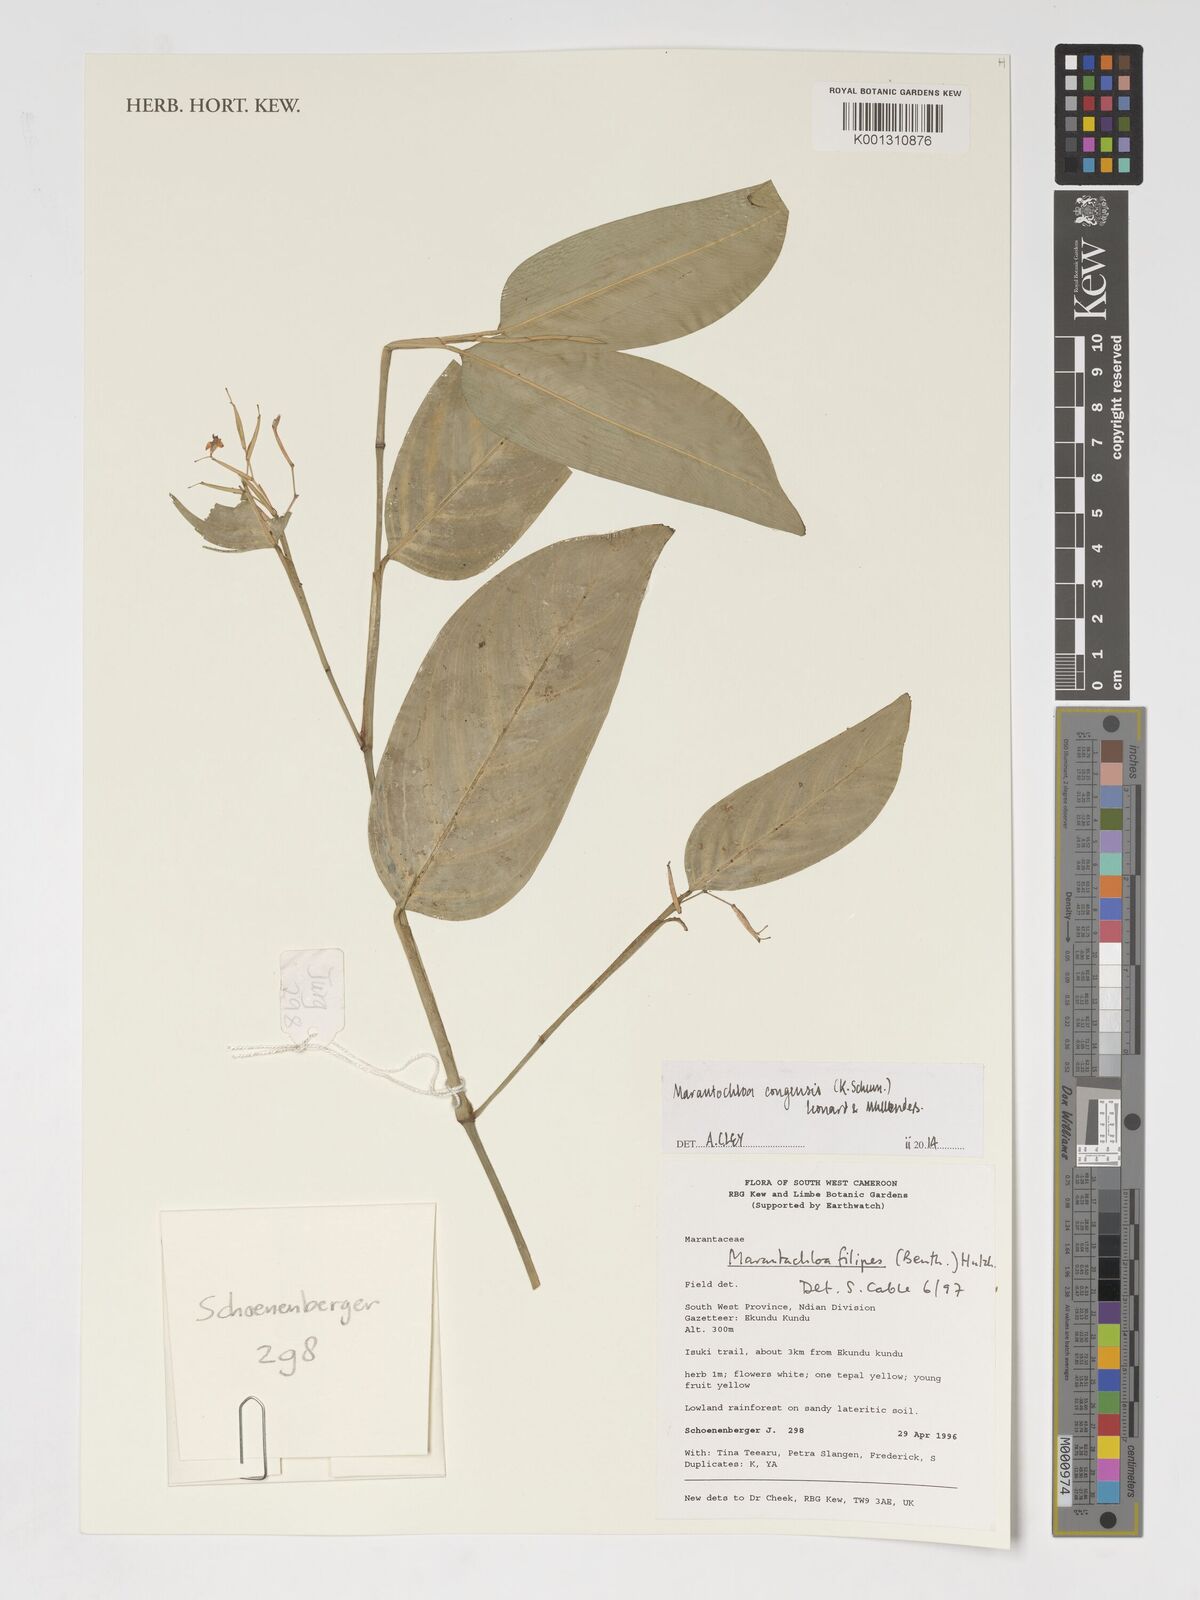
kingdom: Plantae
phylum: Tracheophyta
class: Liliopsida
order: Zingiberales
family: Marantaceae
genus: Marantochloa
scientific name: Marantochloa congensis
